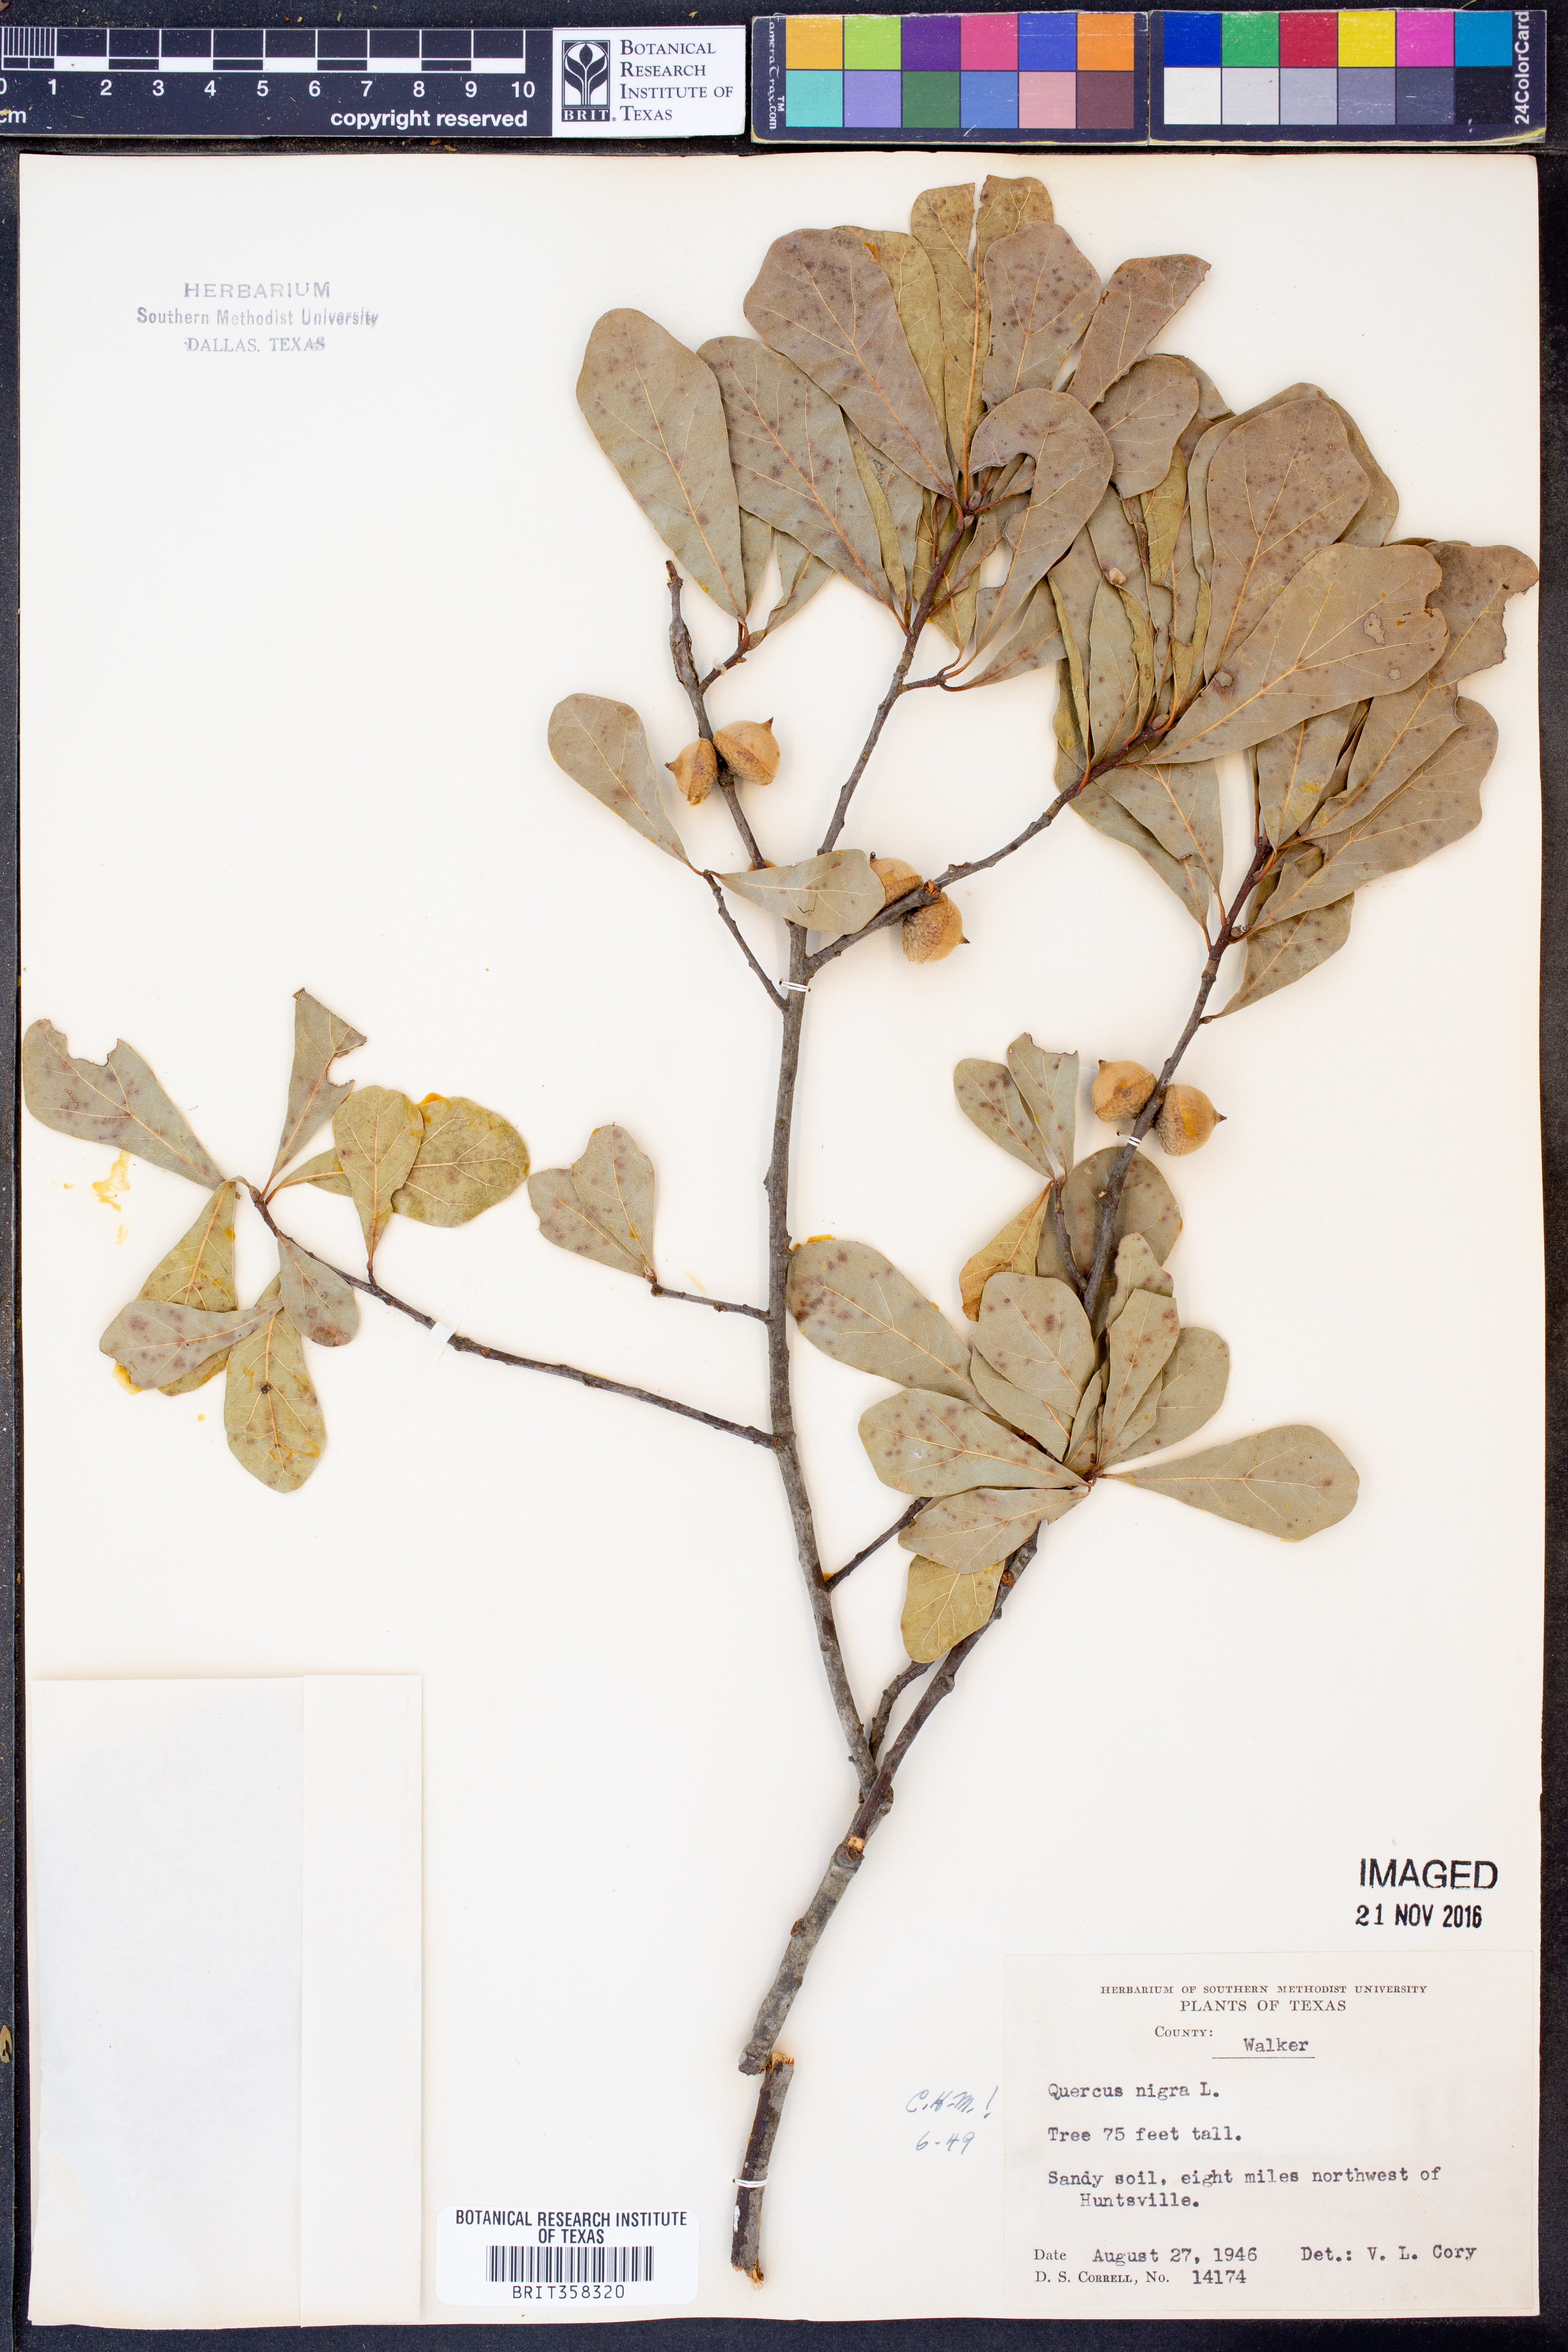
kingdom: Plantae
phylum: Tracheophyta
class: Magnoliopsida
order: Fagales
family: Fagaceae
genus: Quercus
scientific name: Quercus nigra
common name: Water oak
